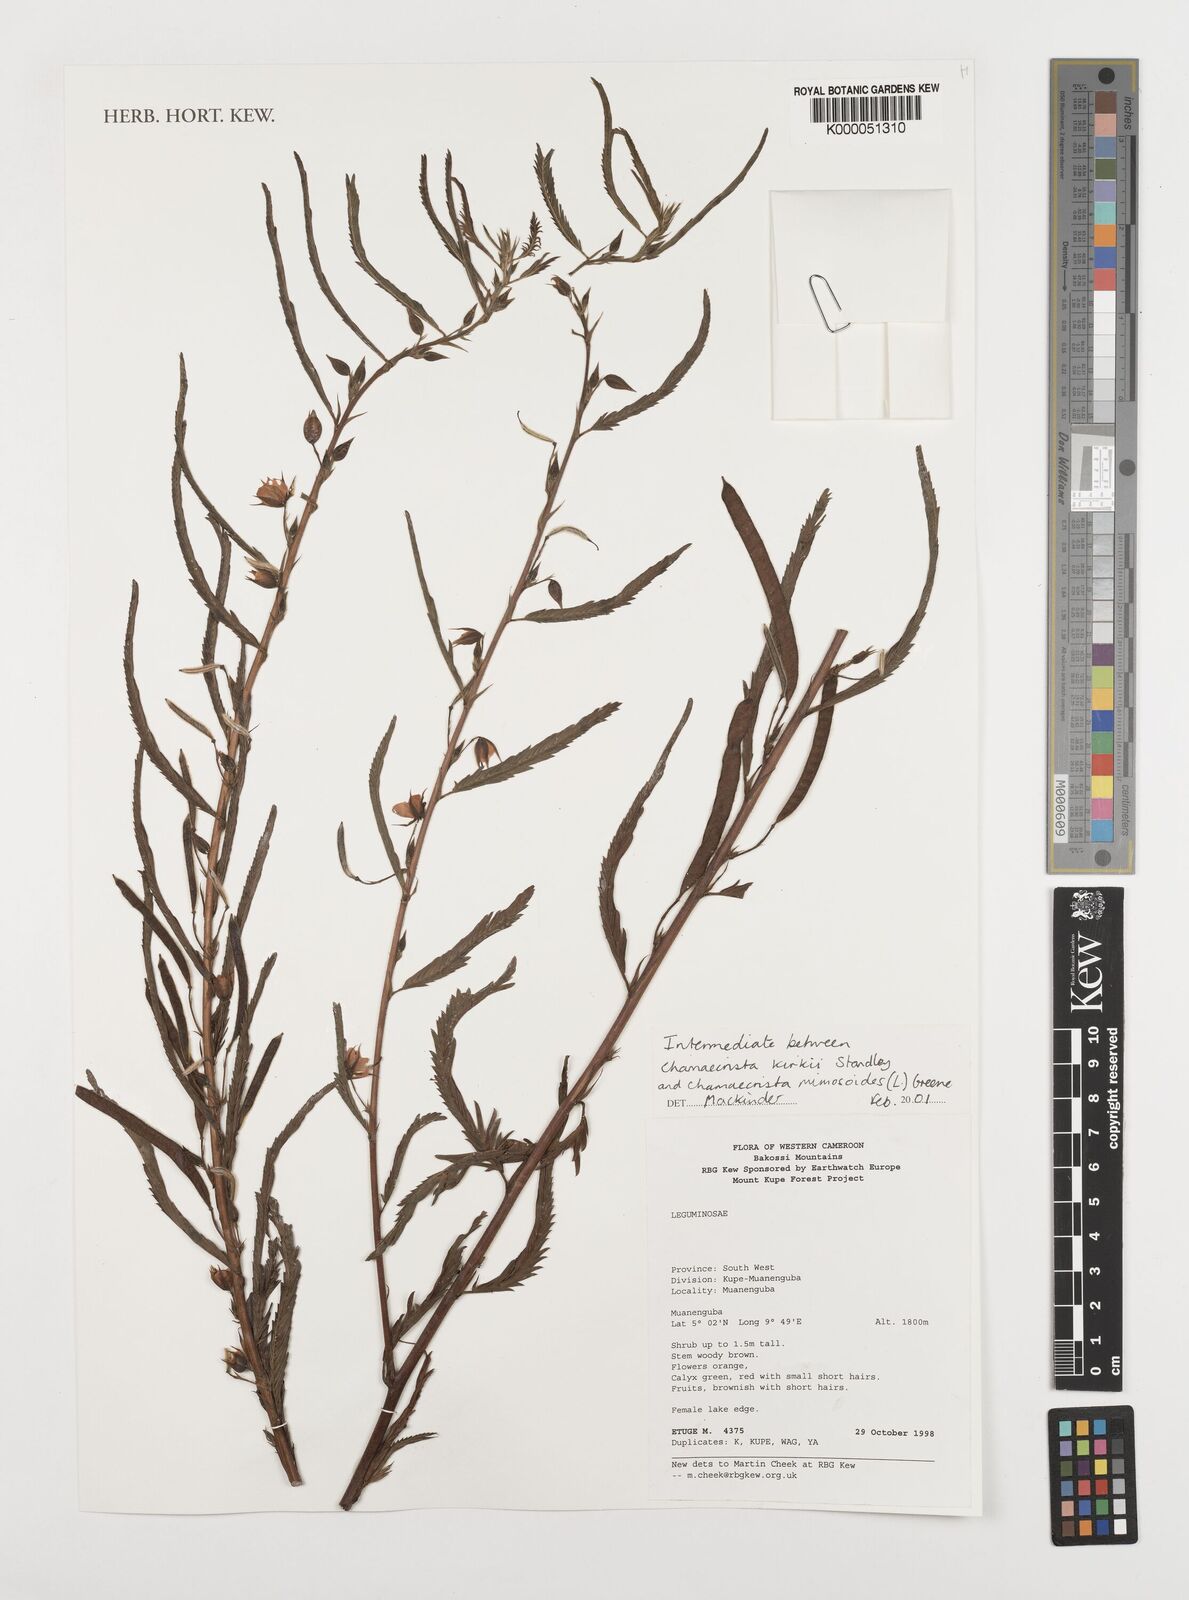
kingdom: Plantae
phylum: Tracheophyta
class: Magnoliopsida
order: Fabales
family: Fabaceae
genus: Chamaecrista
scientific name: Chamaecrista
